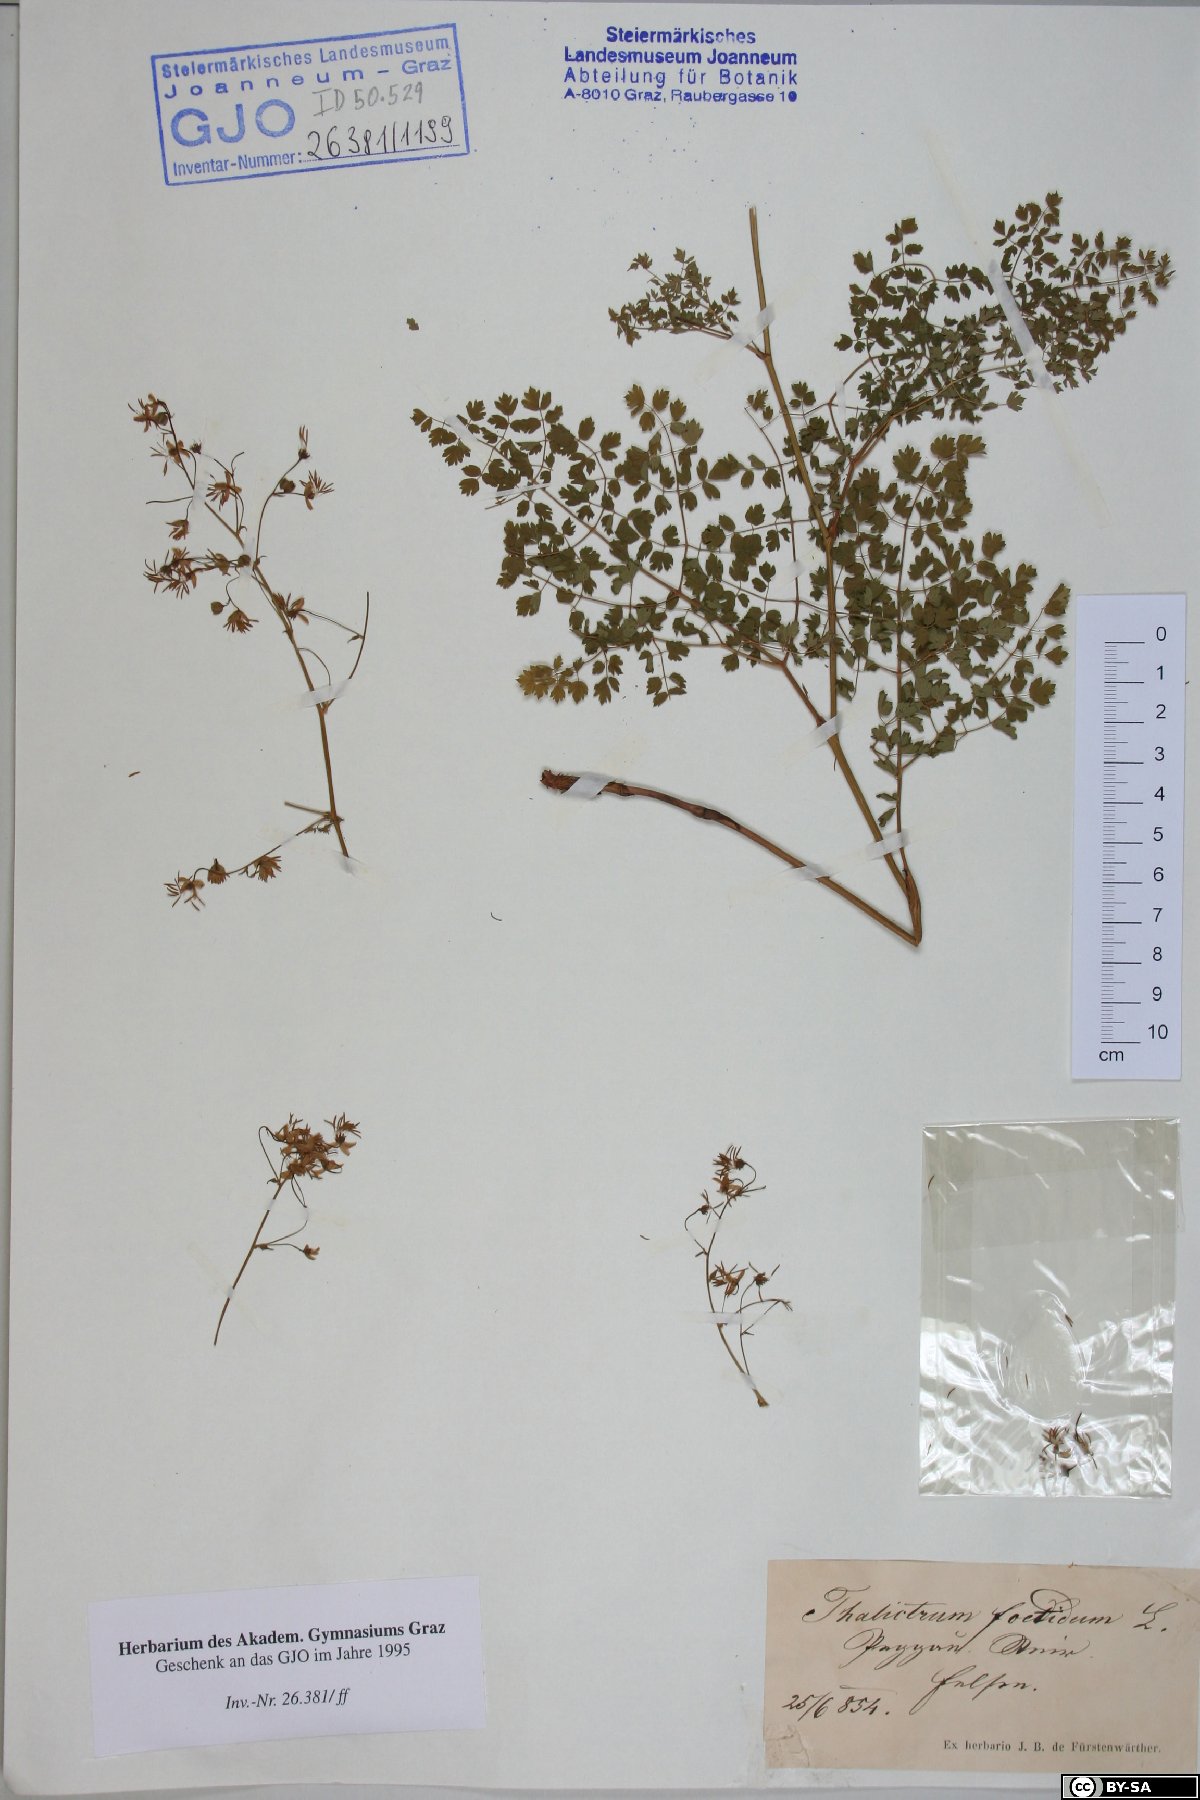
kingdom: Plantae
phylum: Tracheophyta
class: Magnoliopsida
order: Ranunculales
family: Ranunculaceae
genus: Thalictrum
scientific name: Thalictrum foetidum
